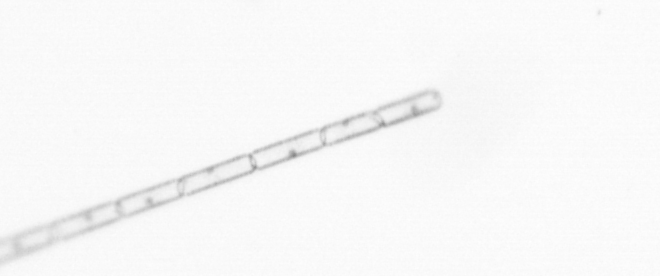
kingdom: Chromista
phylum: Ochrophyta
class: Bacillariophyceae
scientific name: Bacillariophyceae
